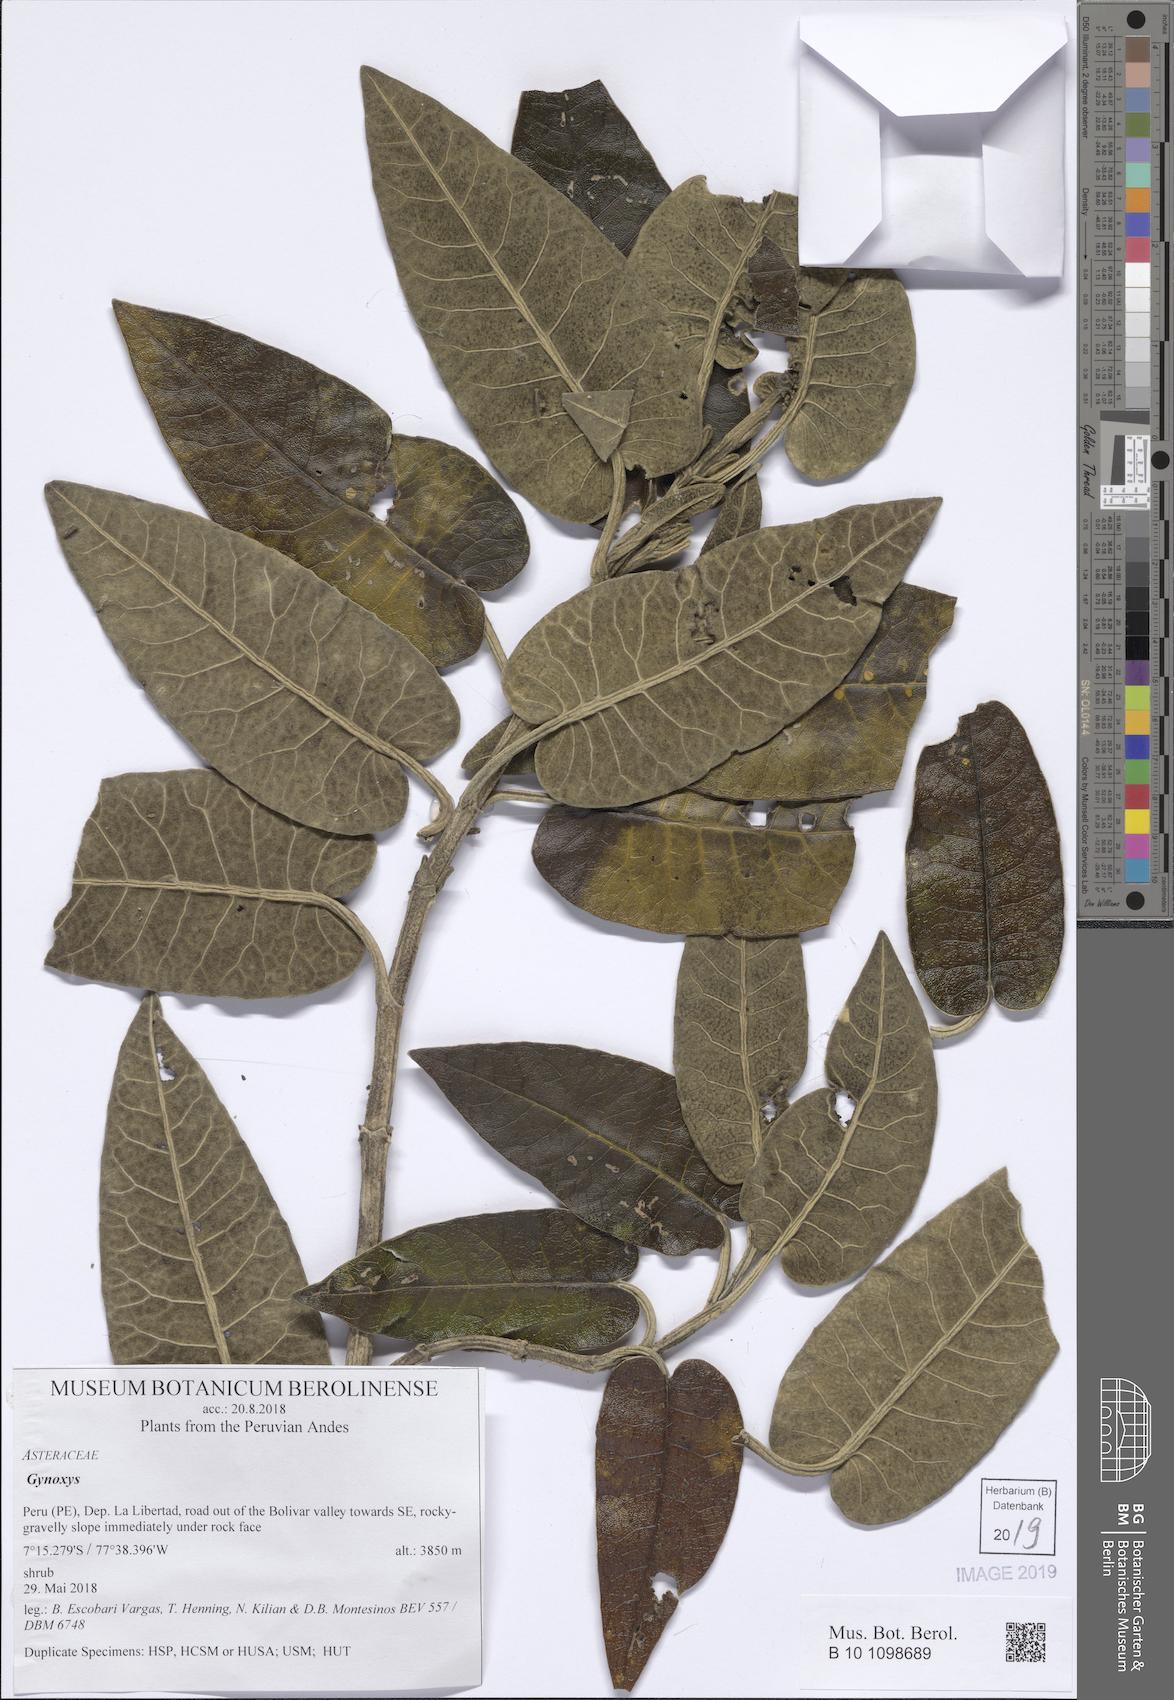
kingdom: Plantae
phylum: Tracheophyta
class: Magnoliopsida
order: Asterales
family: Asteraceae
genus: Gynoxys
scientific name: Gynoxys
